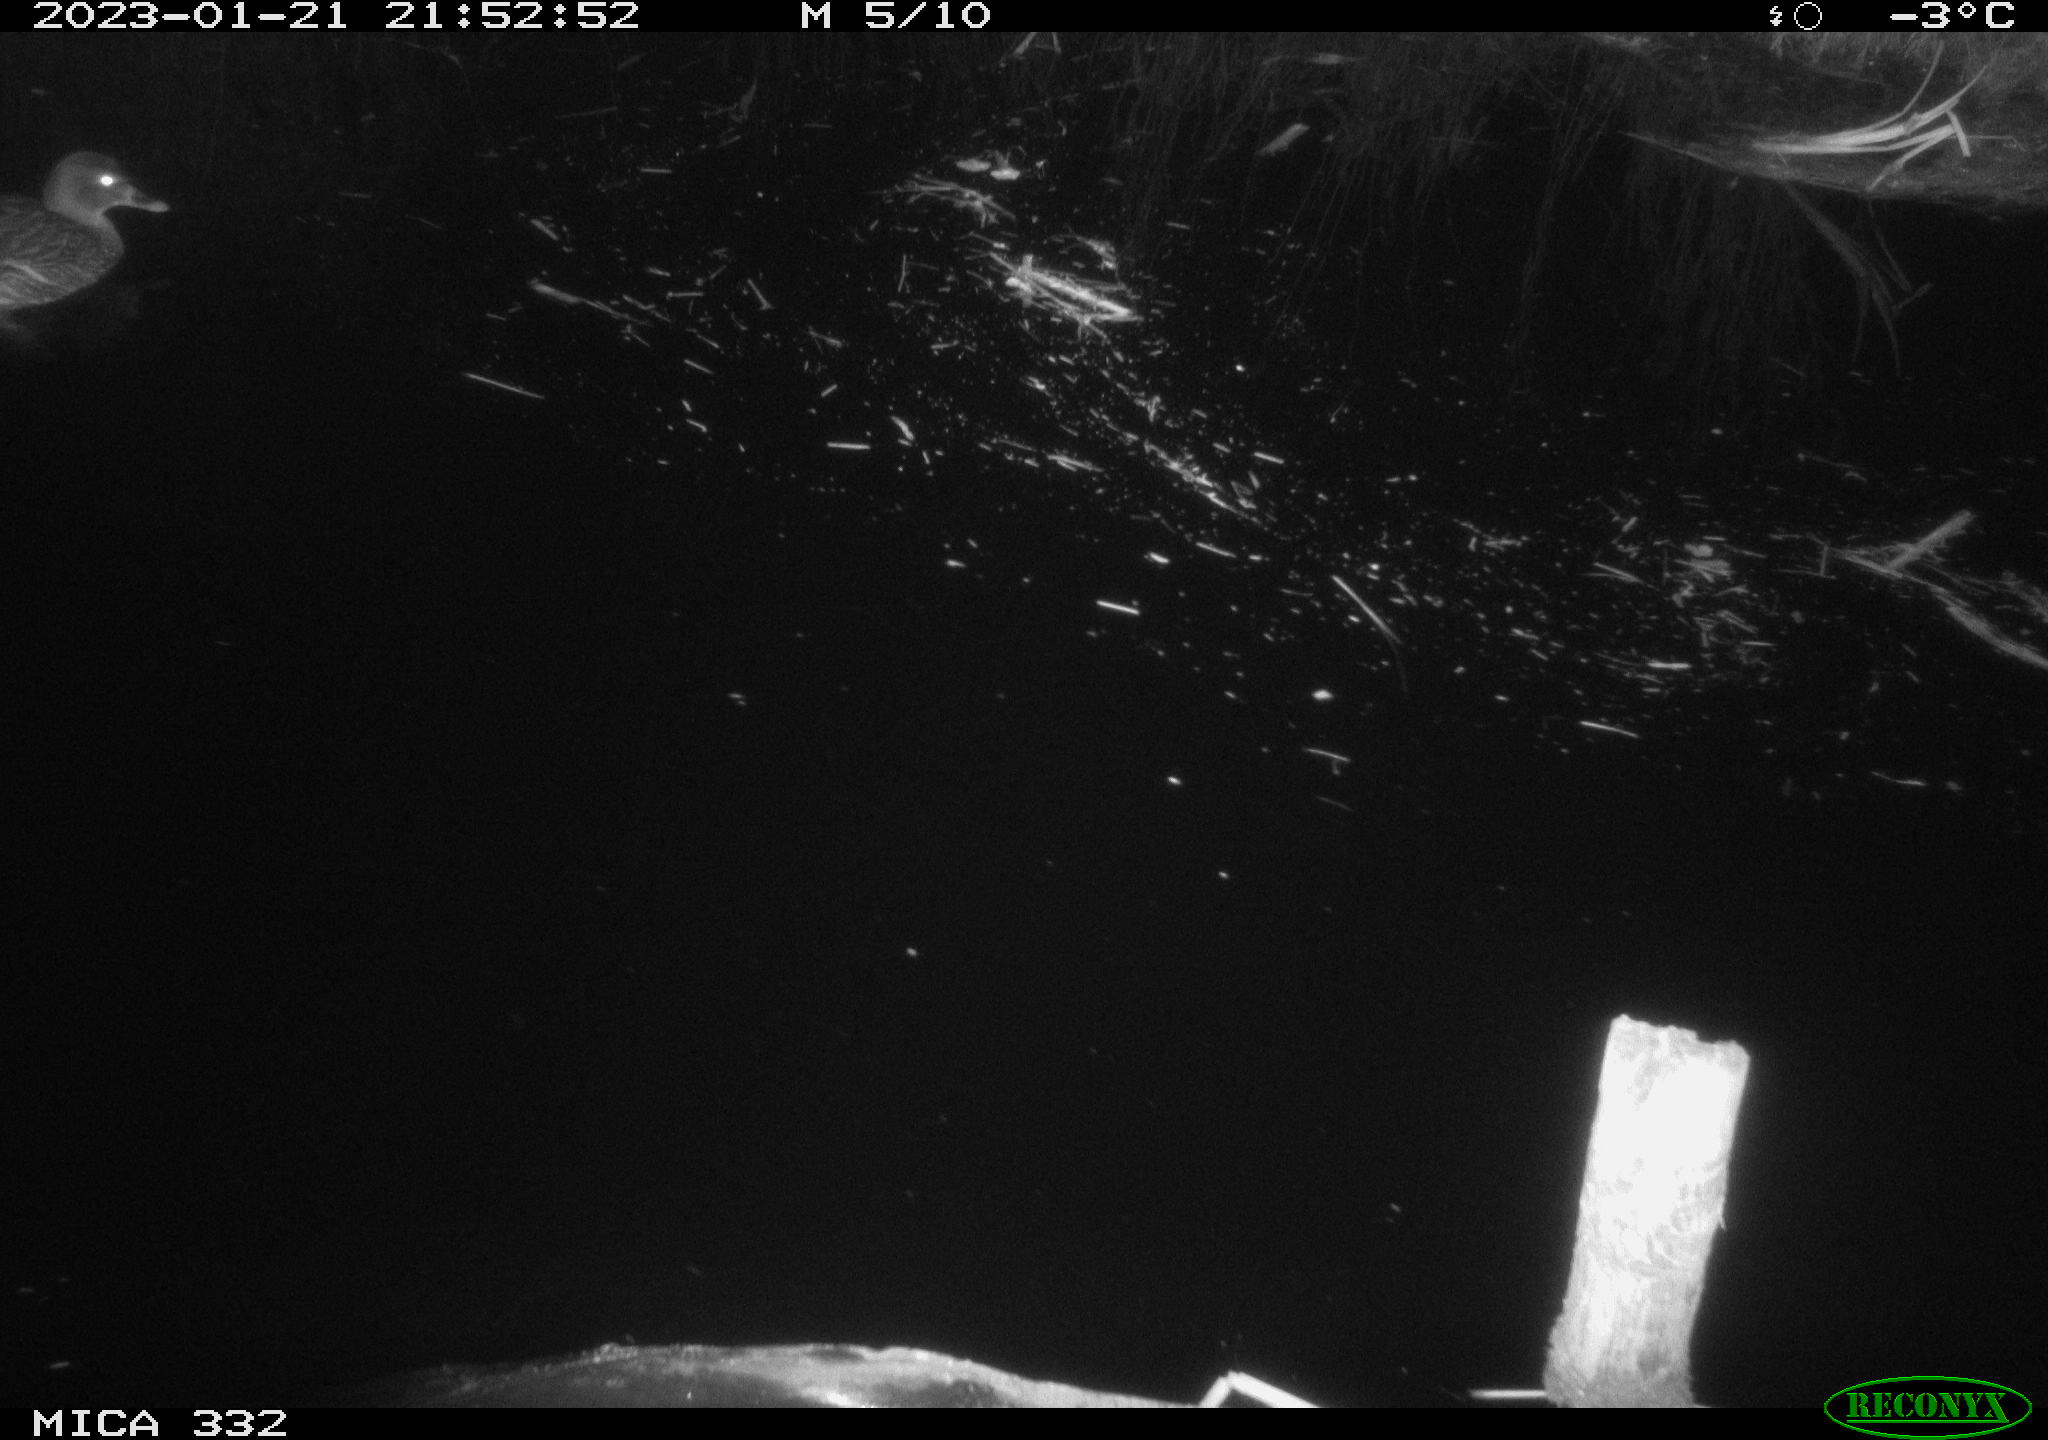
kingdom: Animalia
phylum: Chordata
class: Aves
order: Anseriformes
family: Anatidae
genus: Anas
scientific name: Anas
